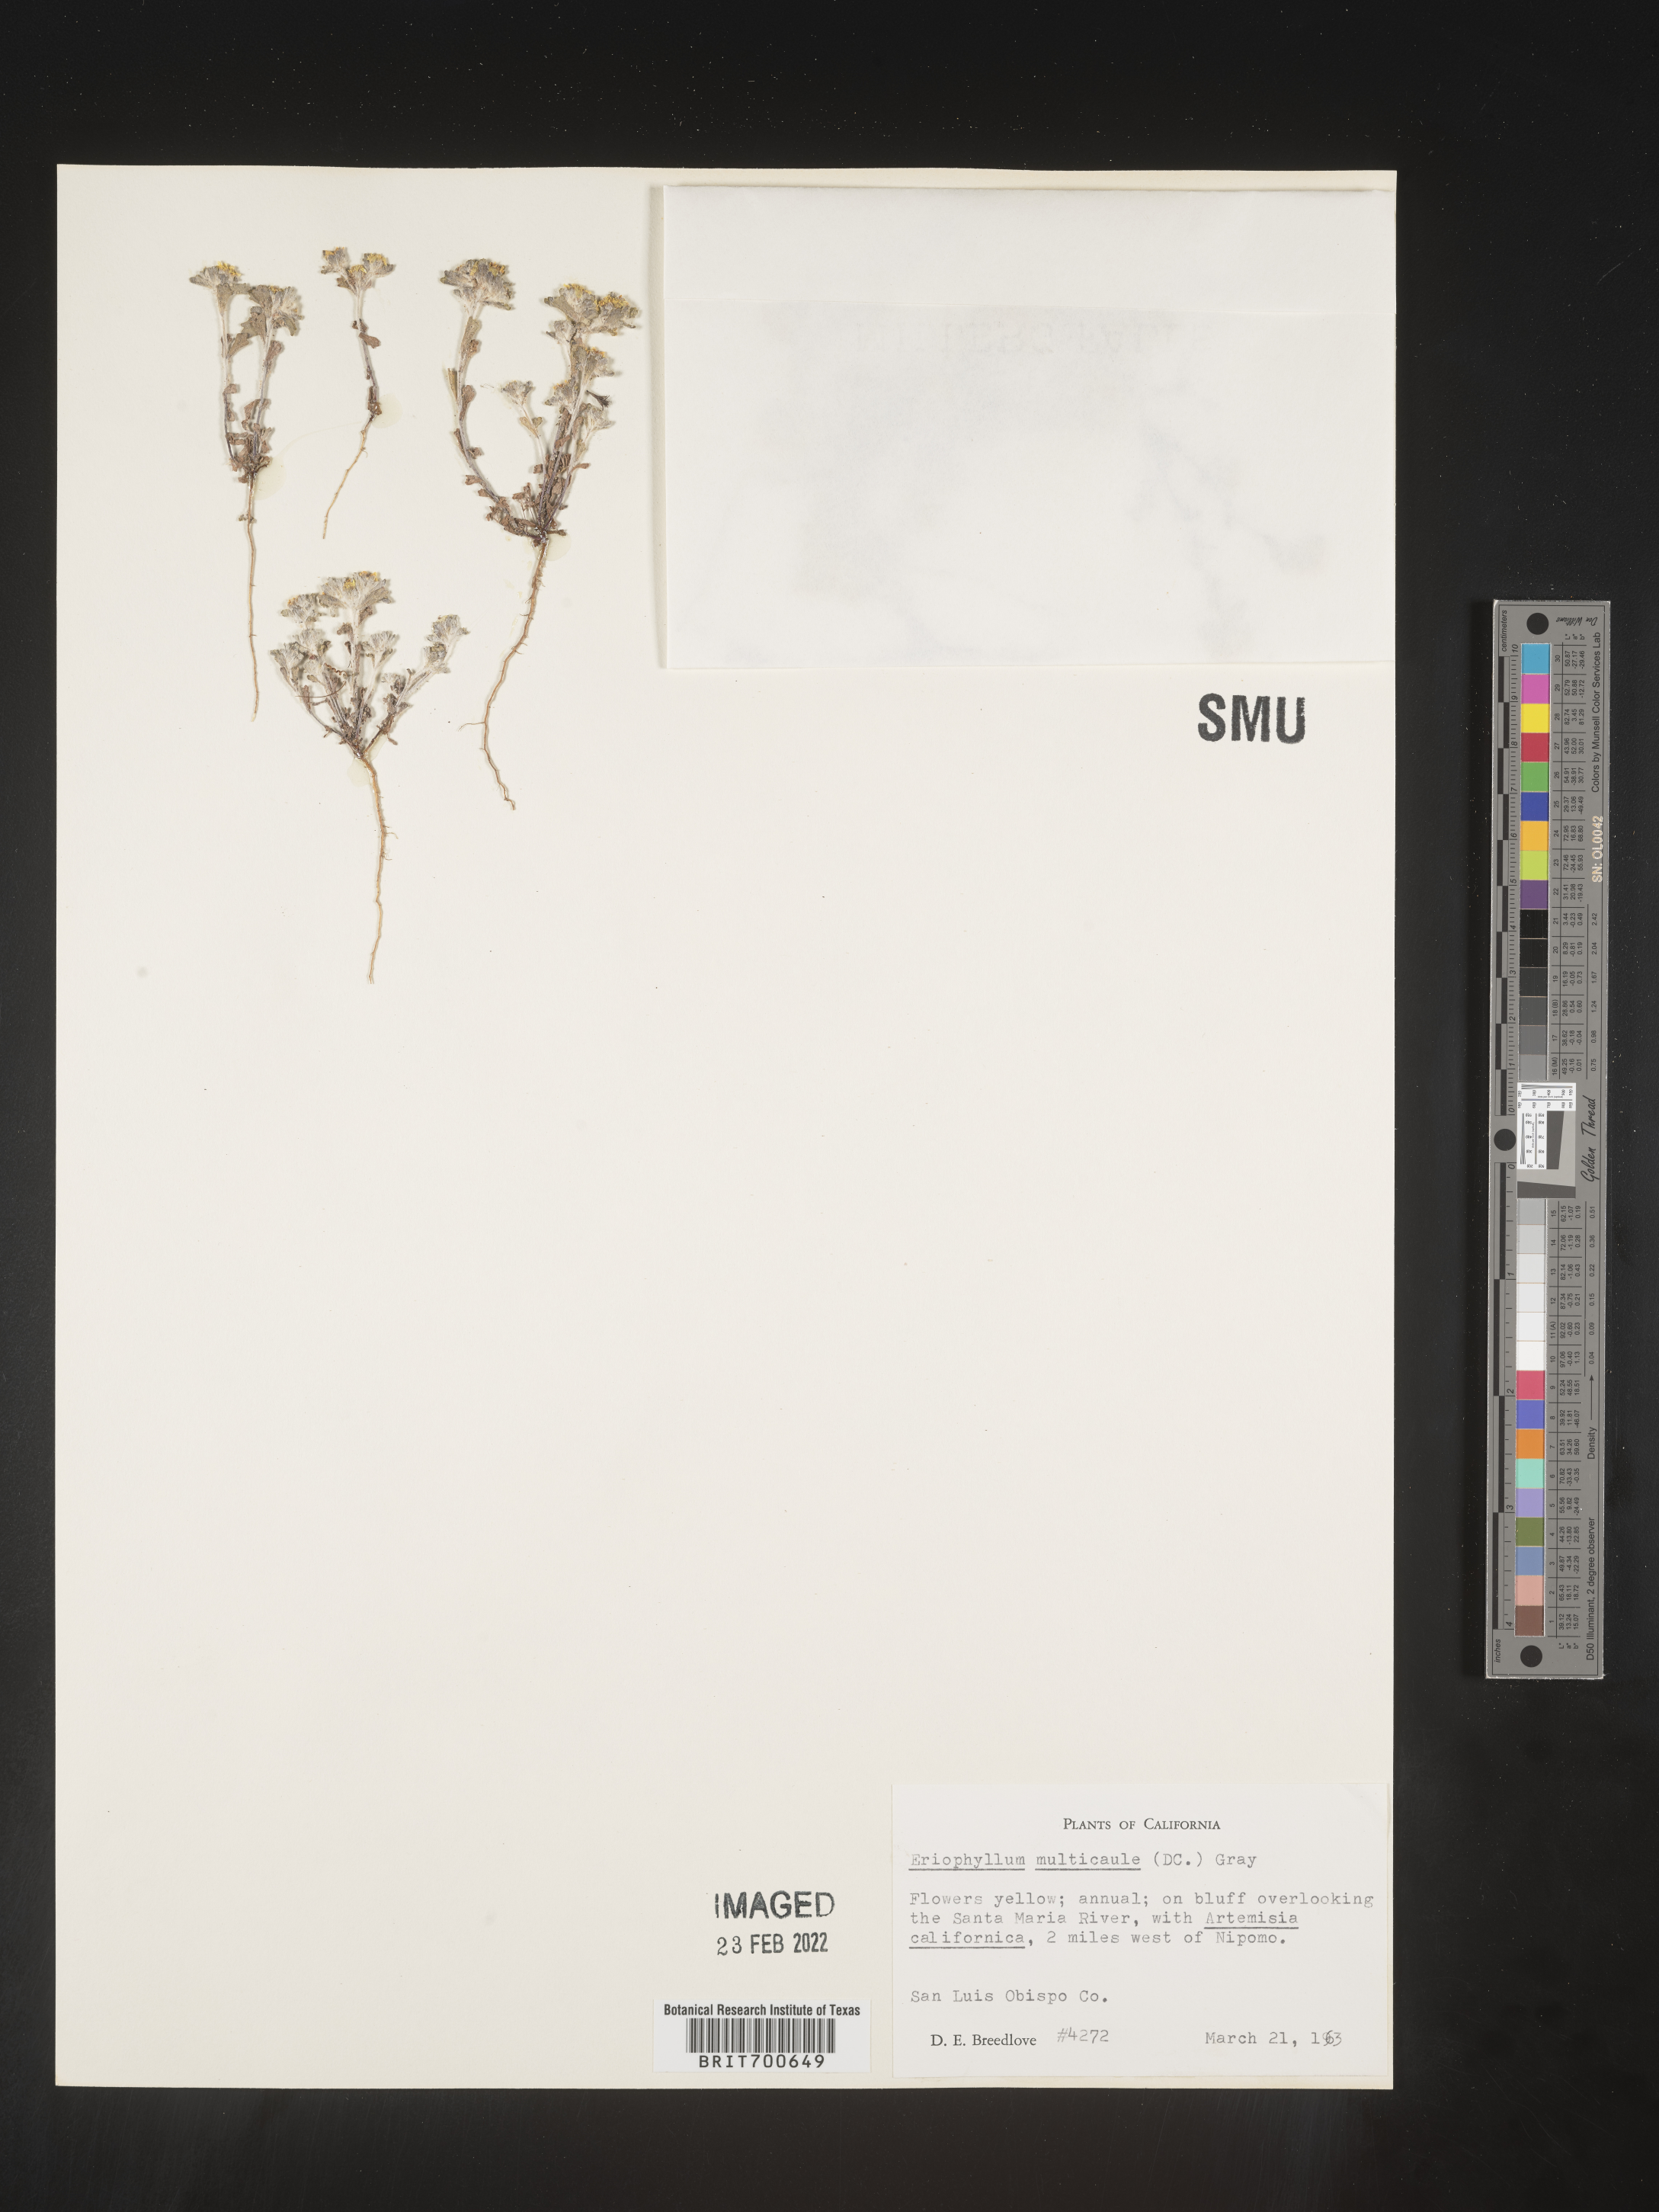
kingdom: Plantae
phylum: Tracheophyta
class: Magnoliopsida
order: Asterales
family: Asteraceae
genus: Eriophyllum
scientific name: Eriophyllum multicaule
